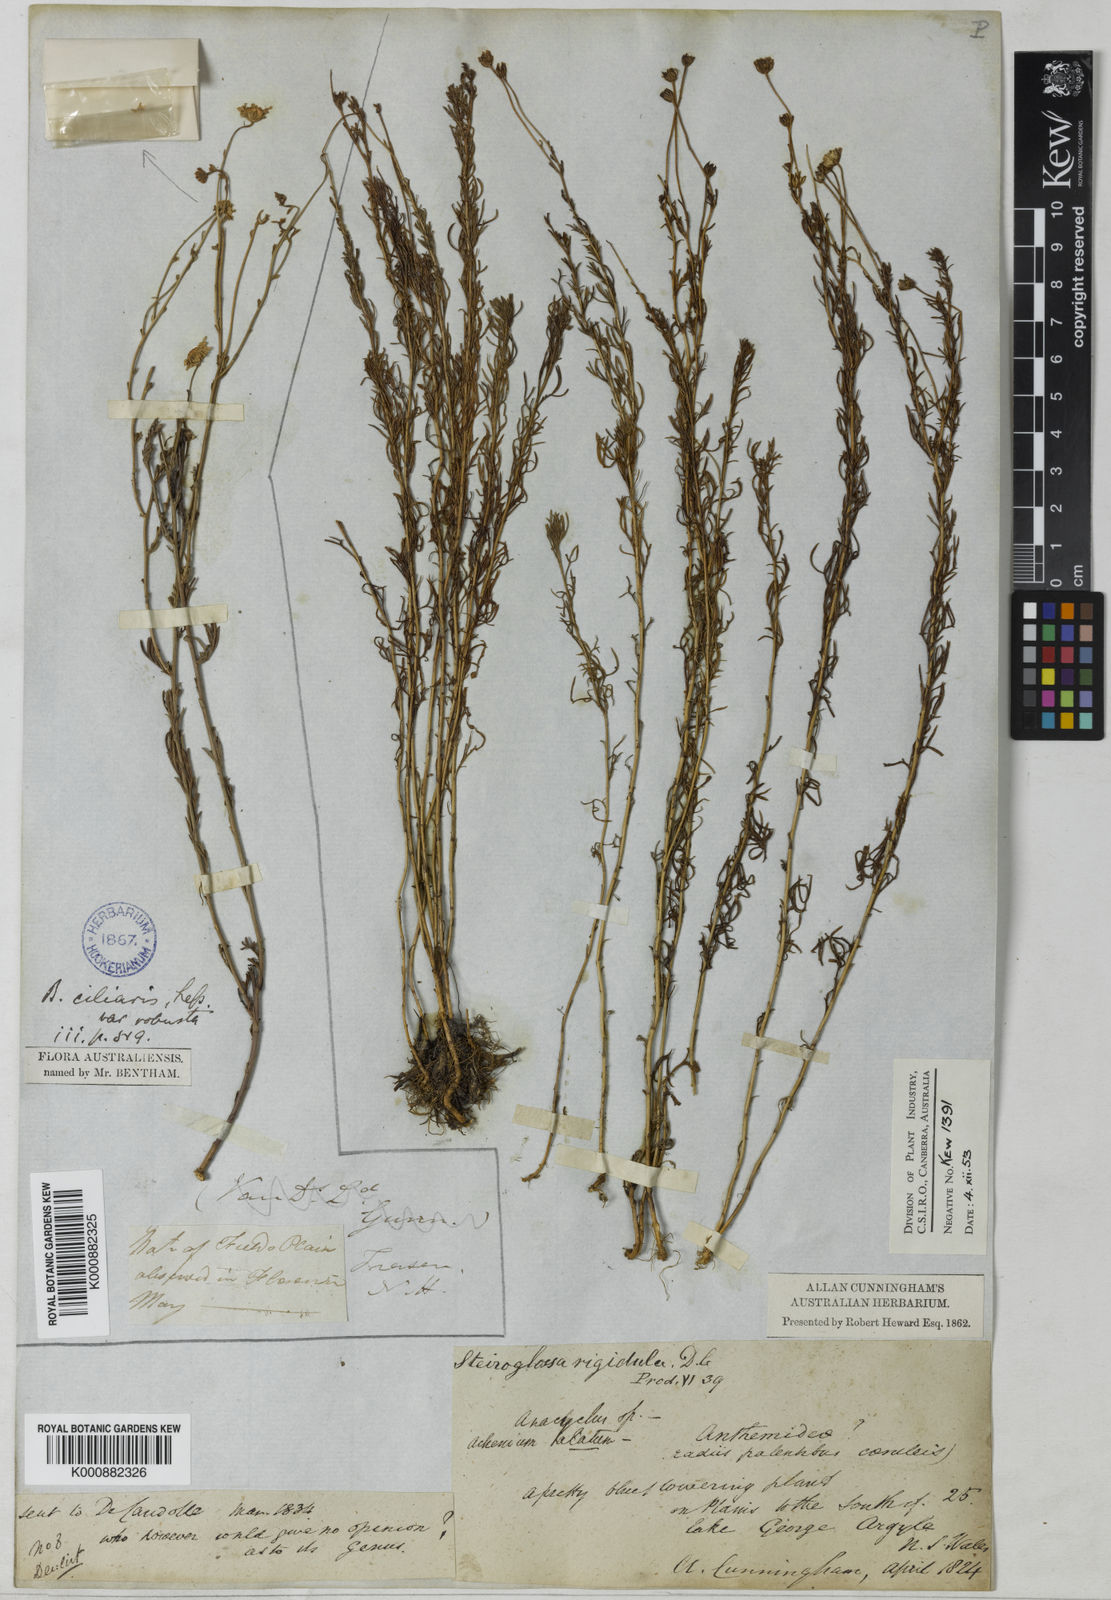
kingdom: Plantae
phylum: Tracheophyta
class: Magnoliopsida
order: Asterales
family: Asteraceae
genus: Brachyscome
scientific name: Brachyscome rigidula
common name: Leafy daisy
